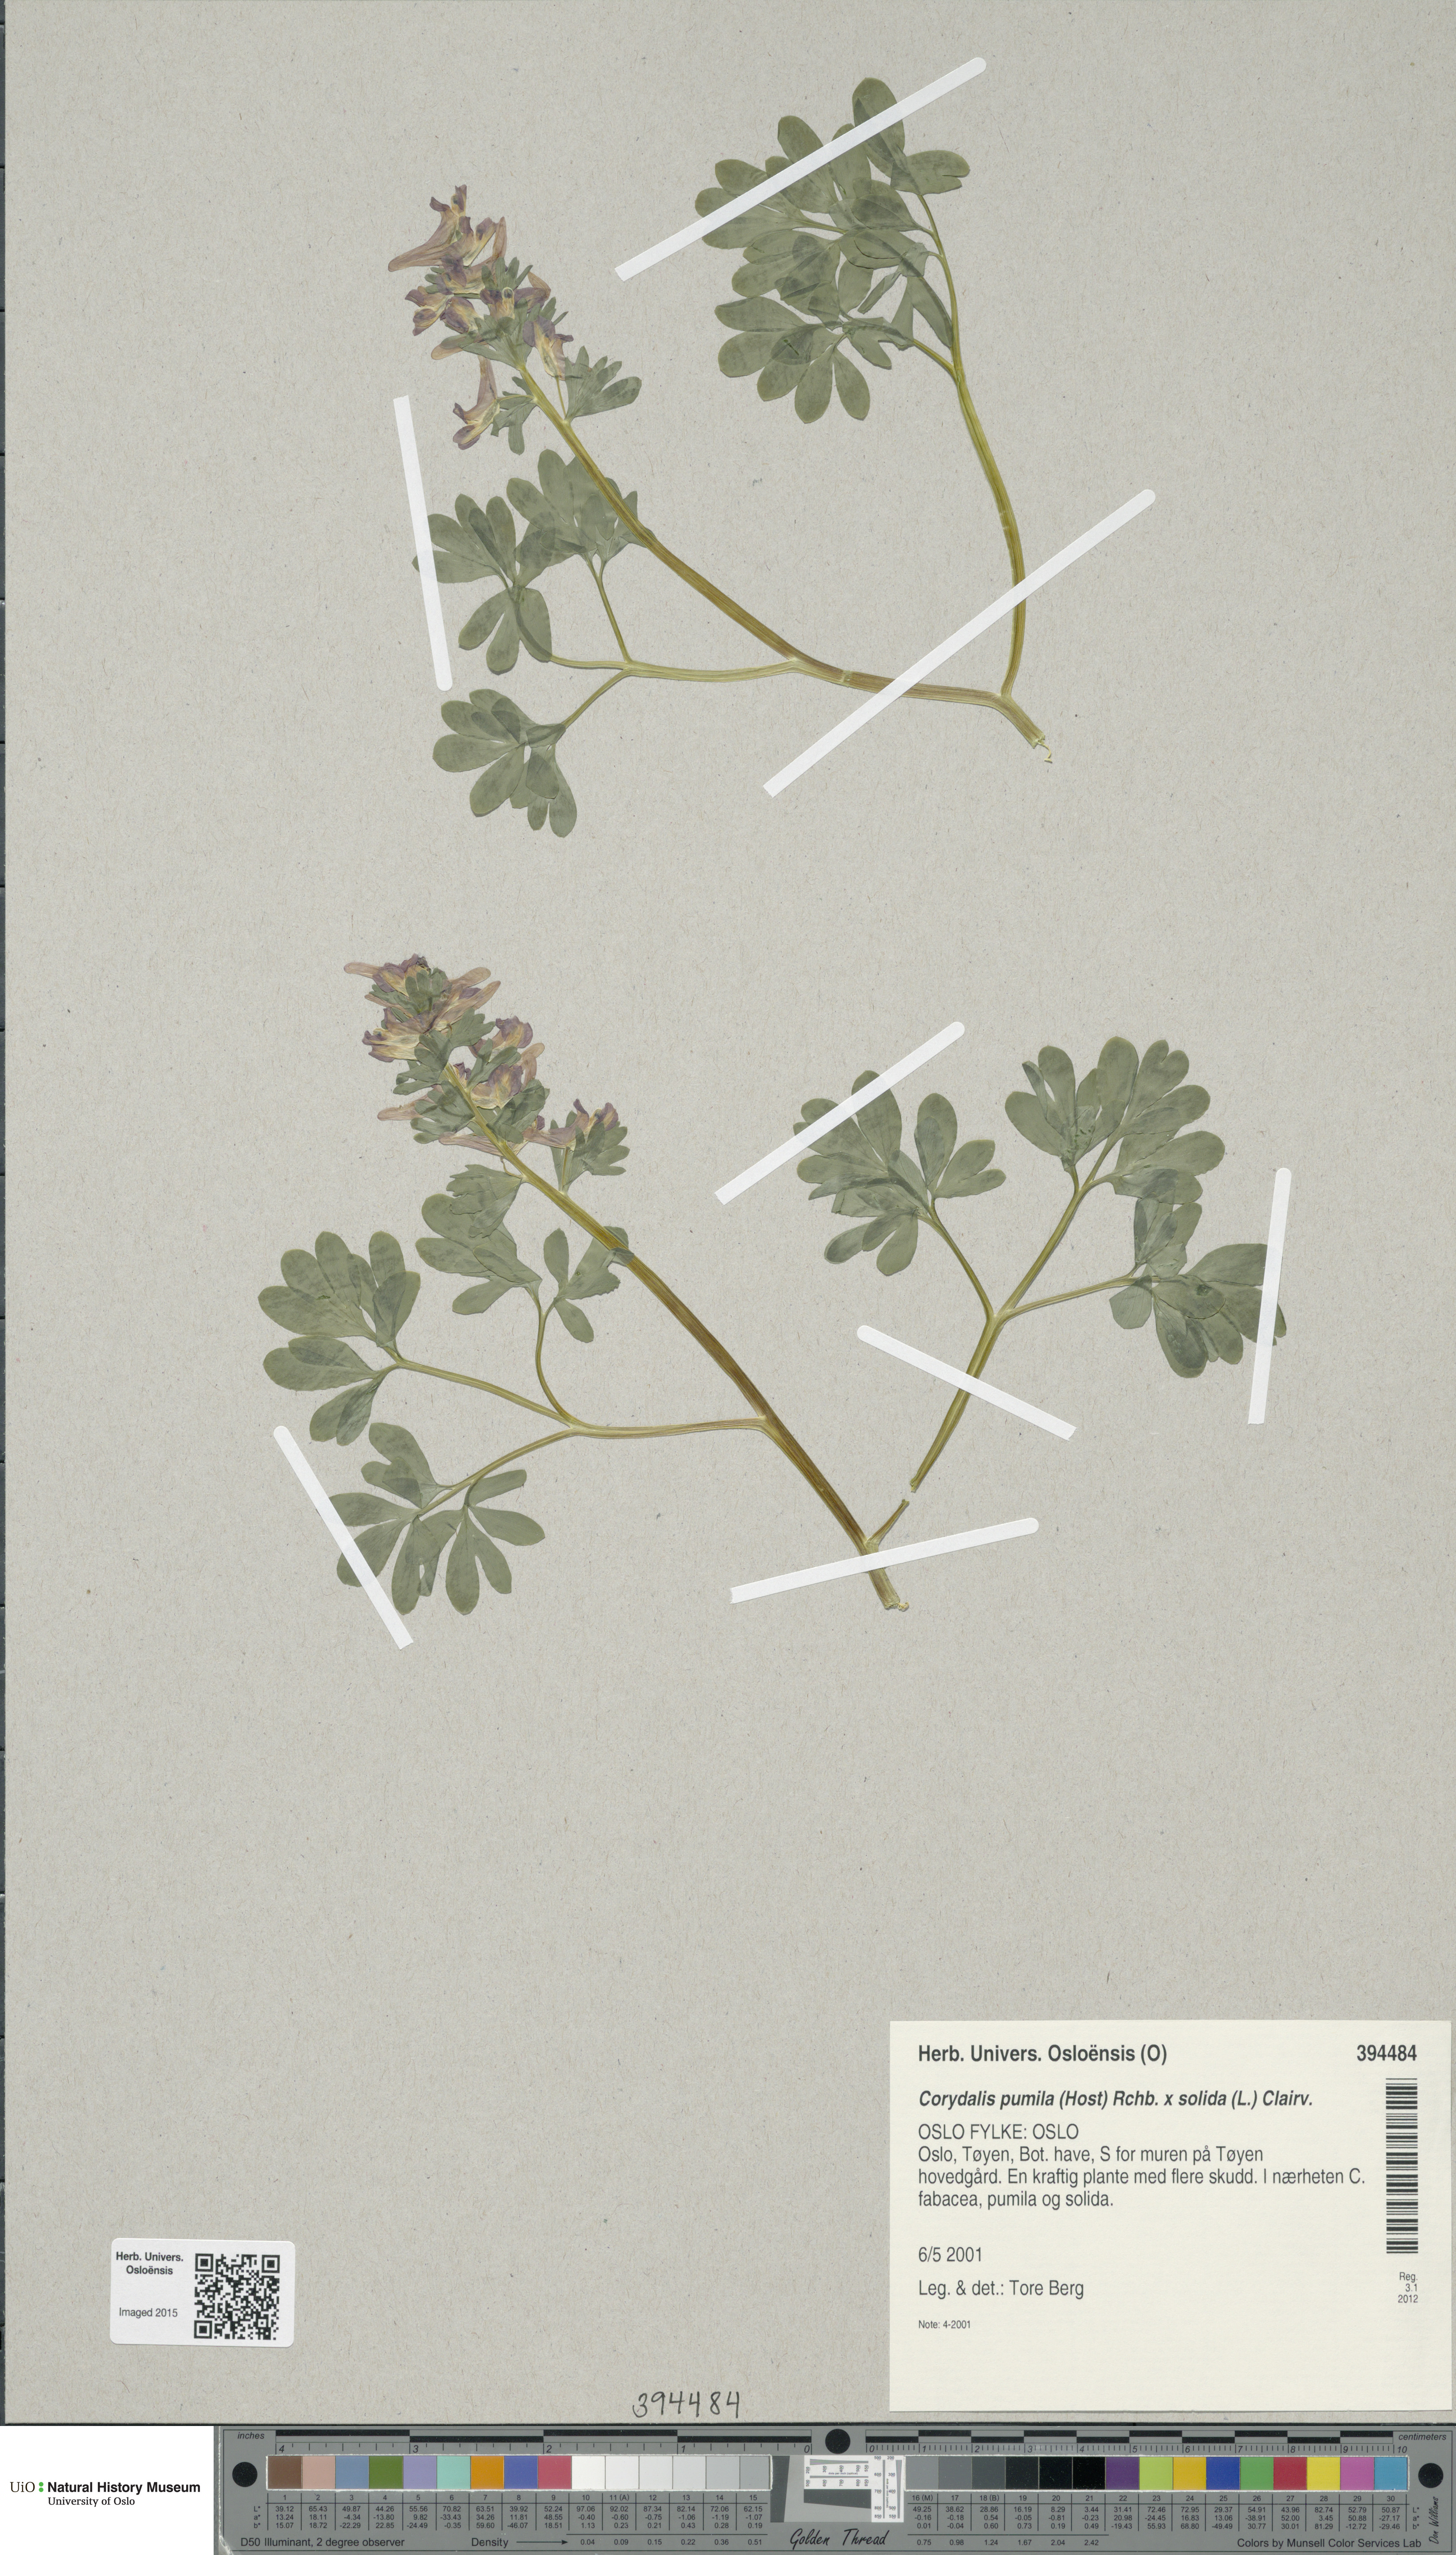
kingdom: Plantae
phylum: Tracheophyta
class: Magnoliopsida
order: Ranunculales
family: Papaveraceae
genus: Corydalis
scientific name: Corydalis
